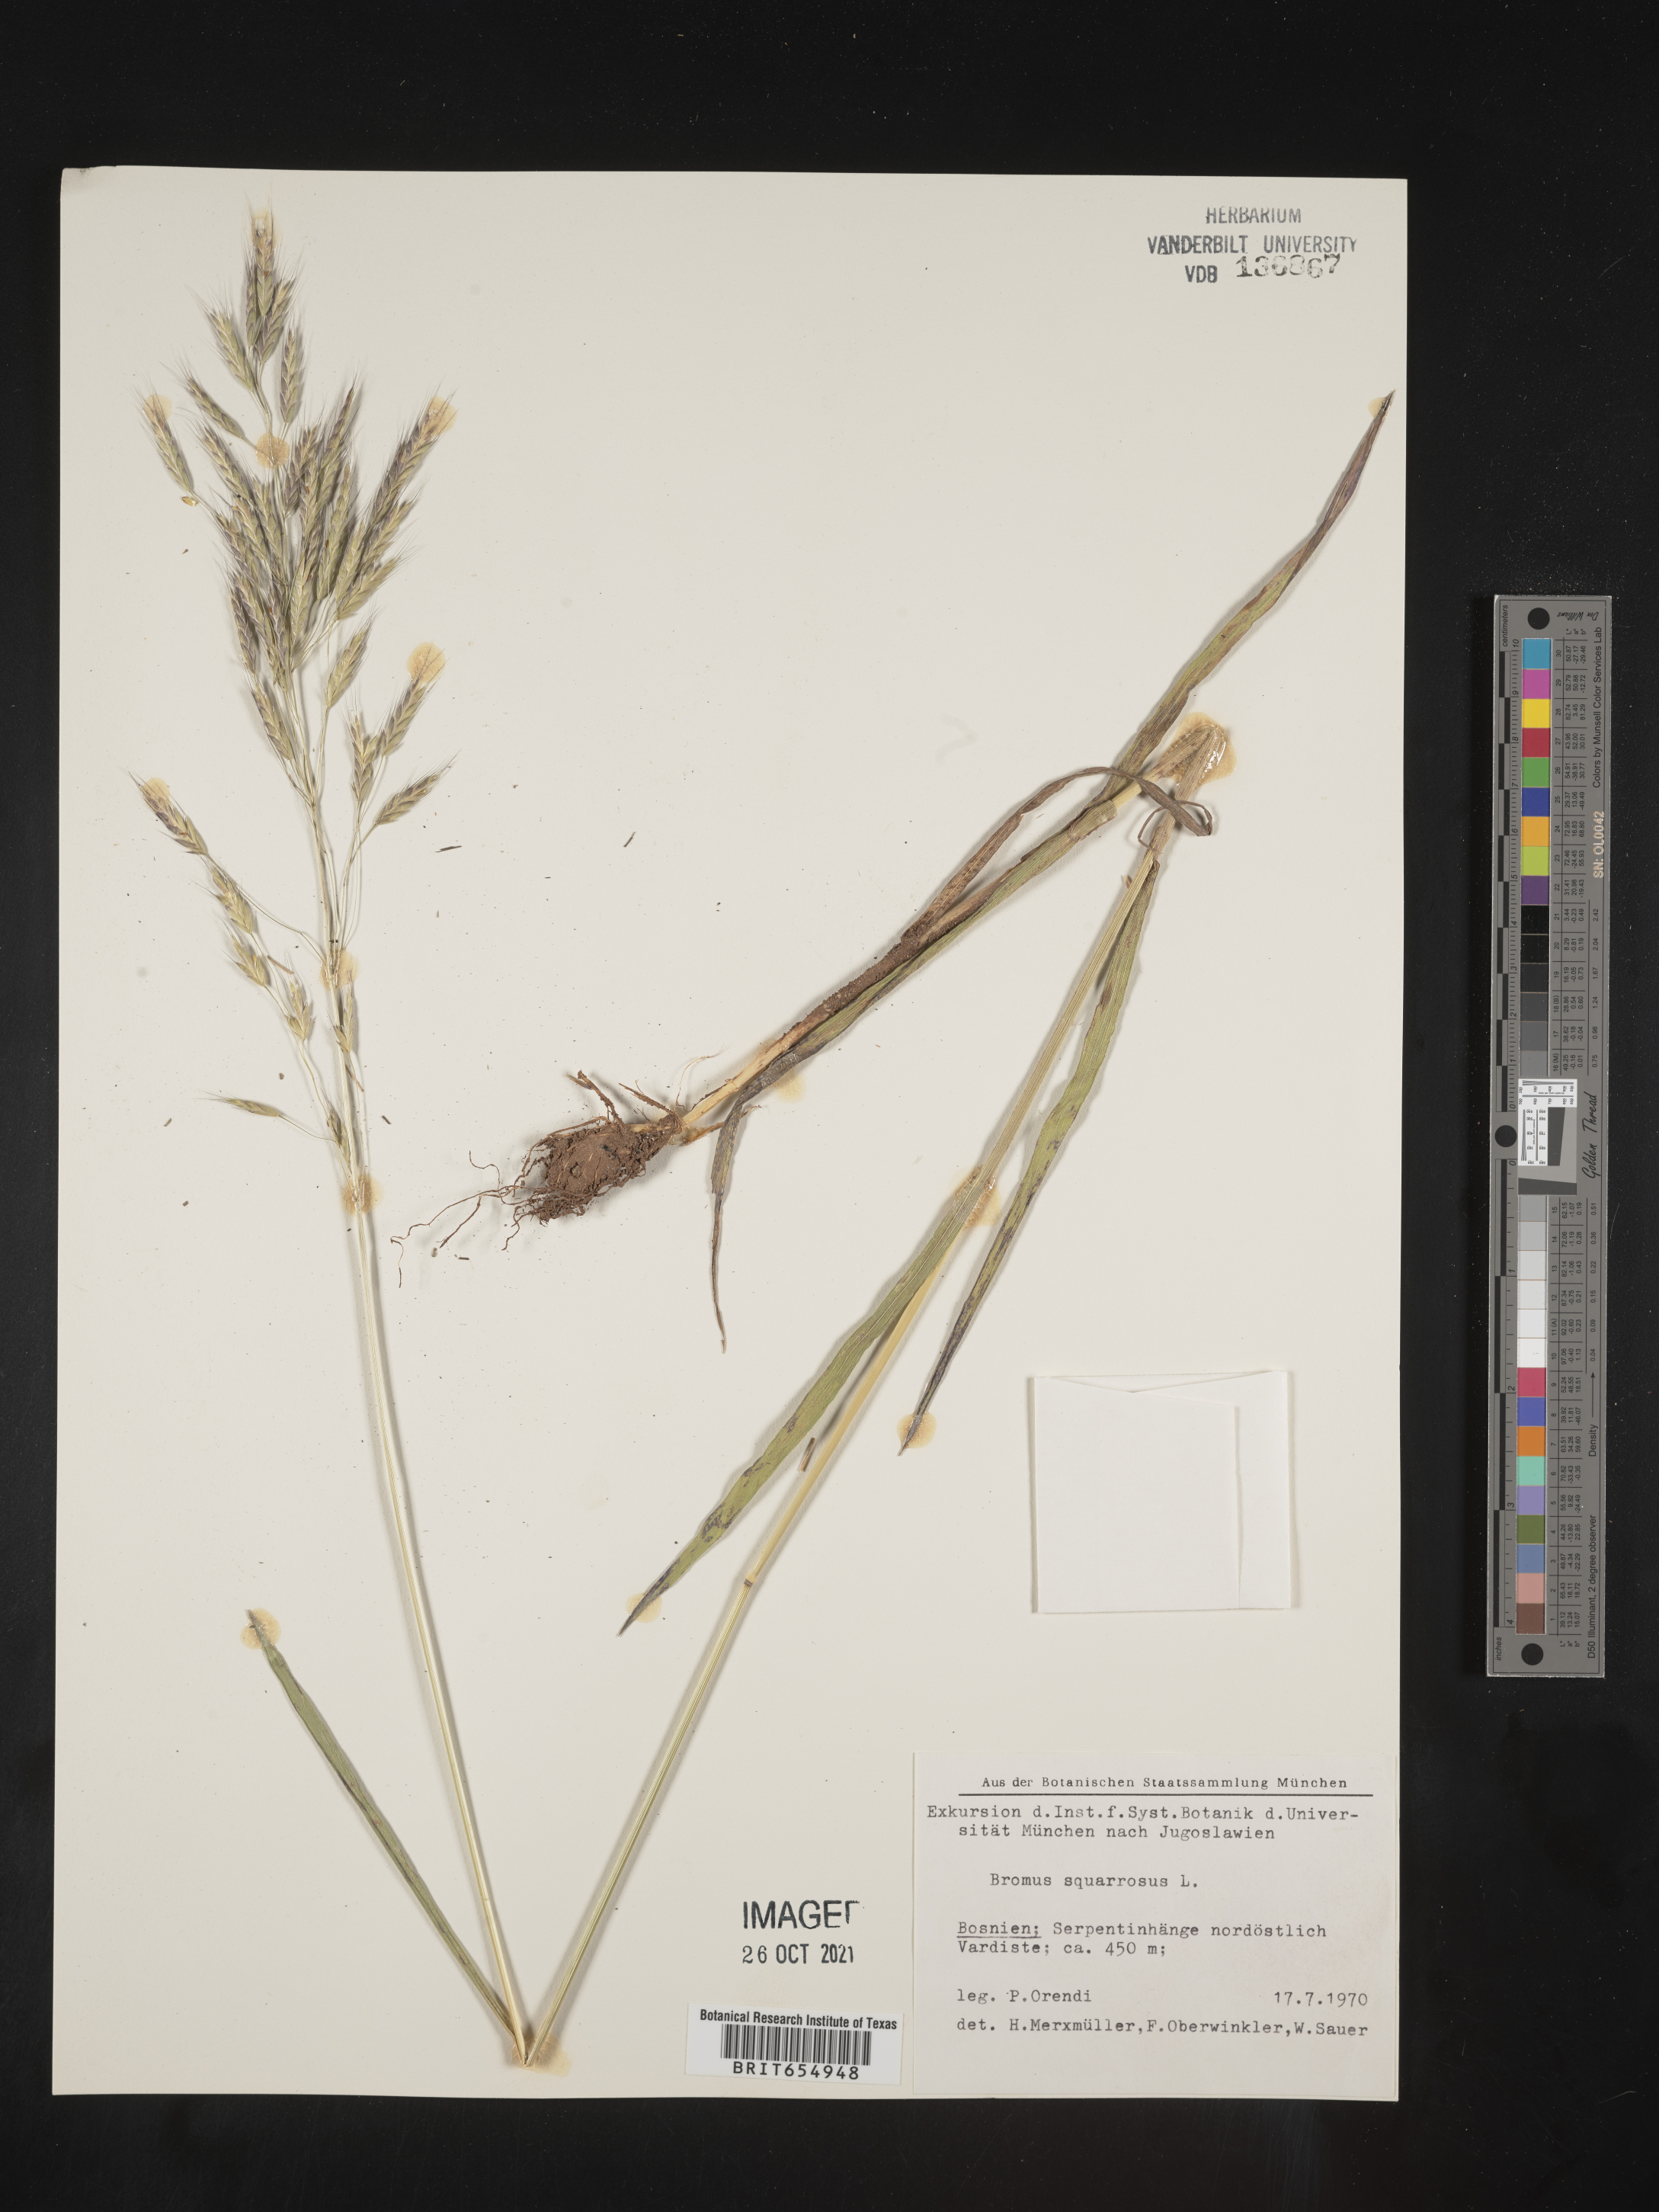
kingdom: Plantae
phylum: Tracheophyta
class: Liliopsida
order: Poales
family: Poaceae
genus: Bromus
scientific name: Bromus
